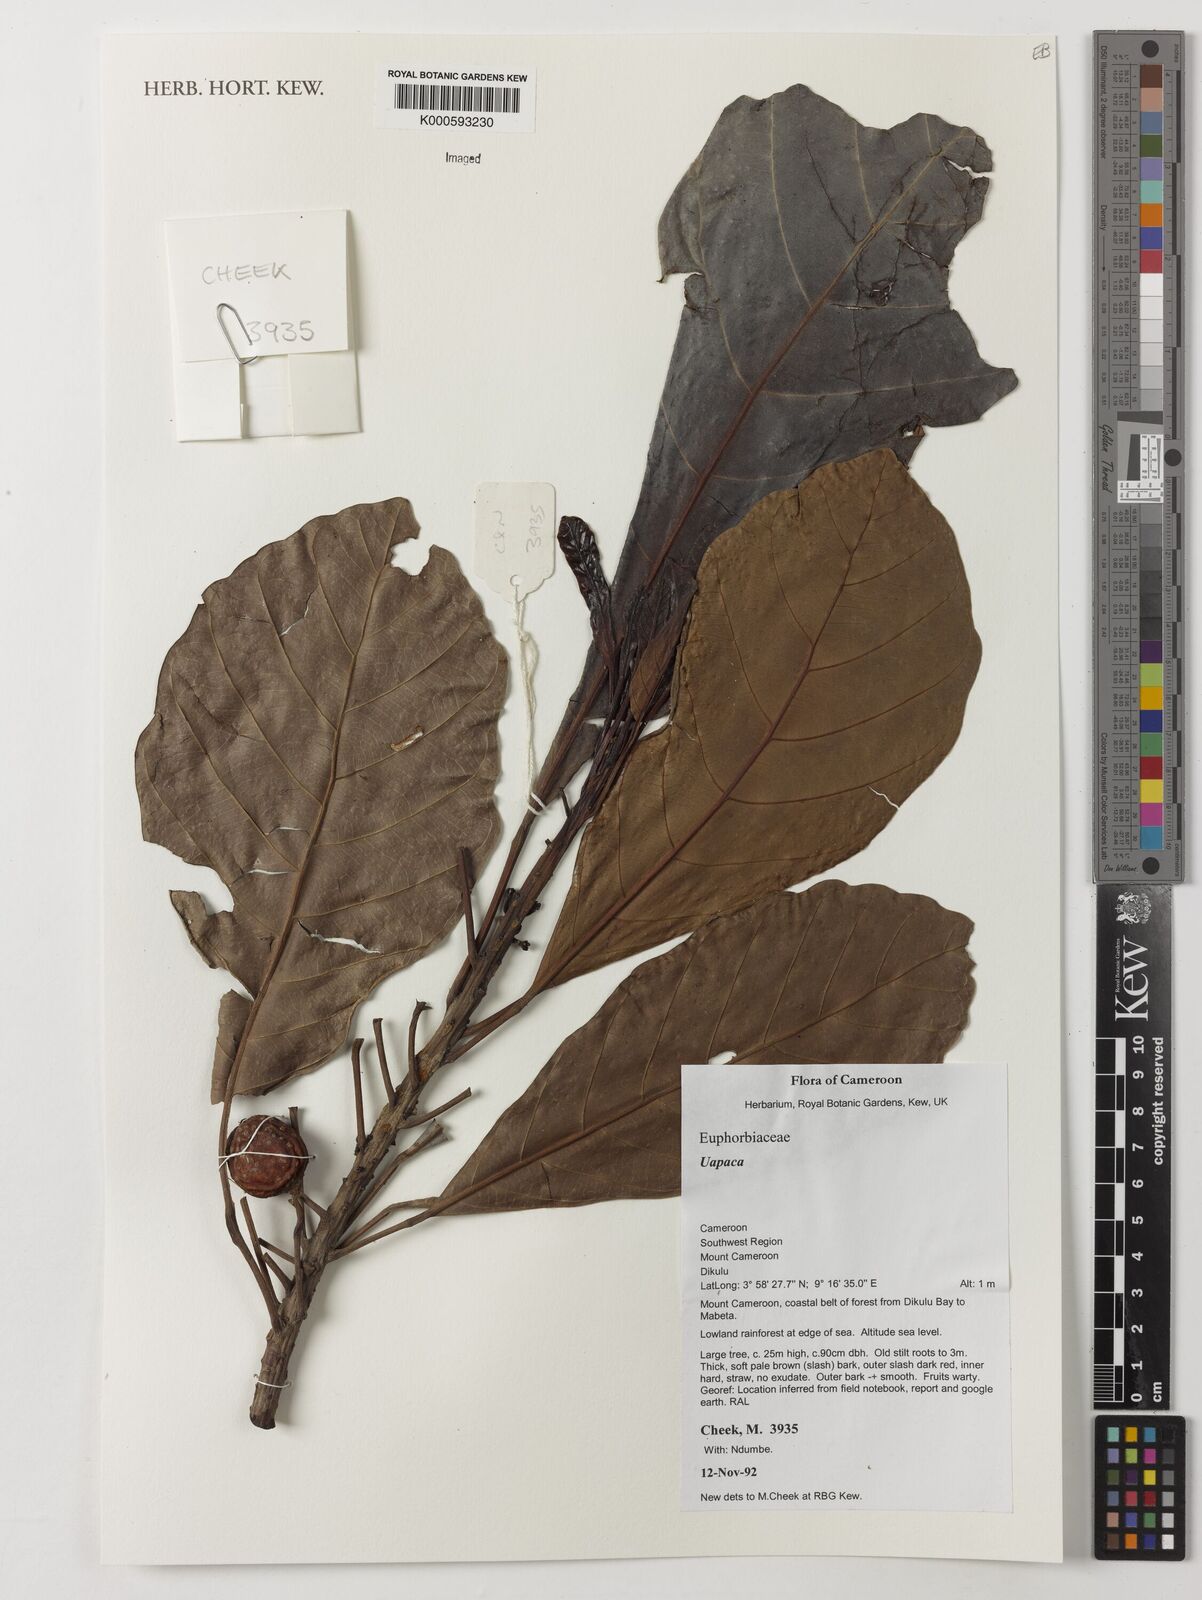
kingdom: Plantae
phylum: Tracheophyta
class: Magnoliopsida
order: Malpighiales
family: Phyllanthaceae
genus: Uapaca
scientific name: Uapaca
